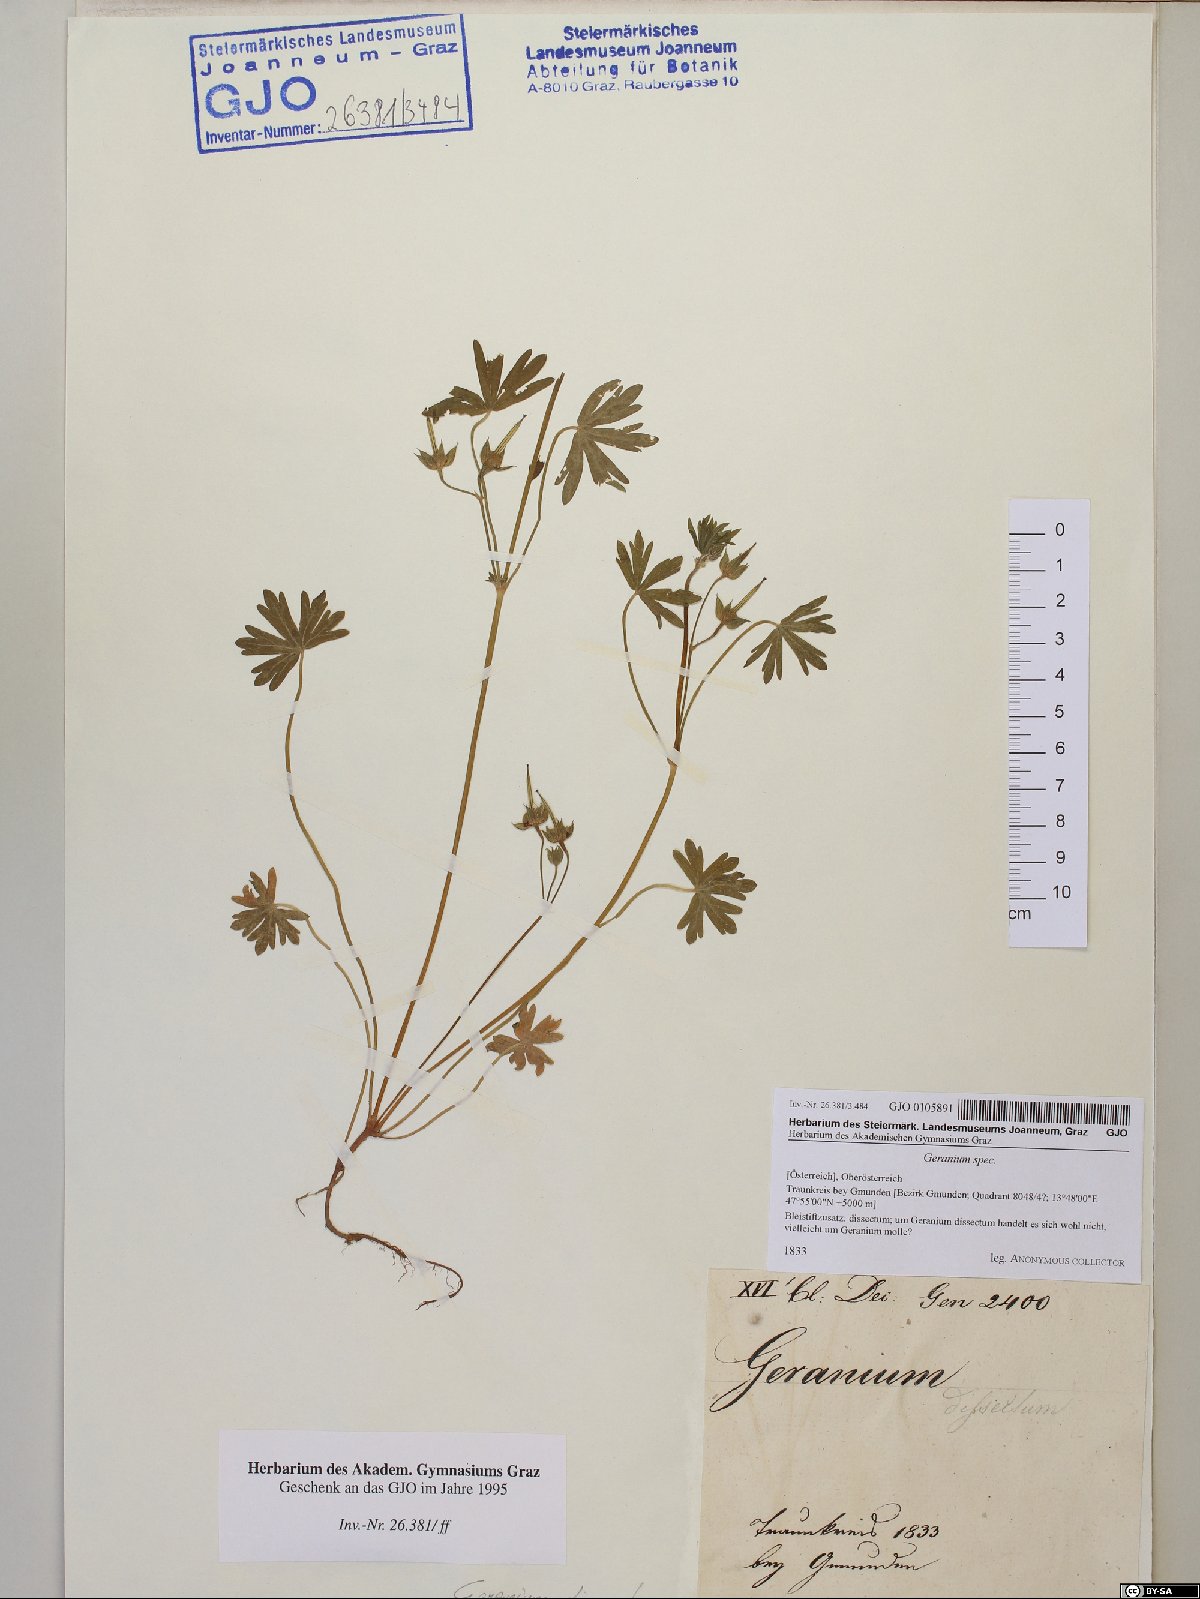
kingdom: Plantae
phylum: Tracheophyta
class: Magnoliopsida
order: Geraniales
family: Geraniaceae
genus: Geranium
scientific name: Geranium
